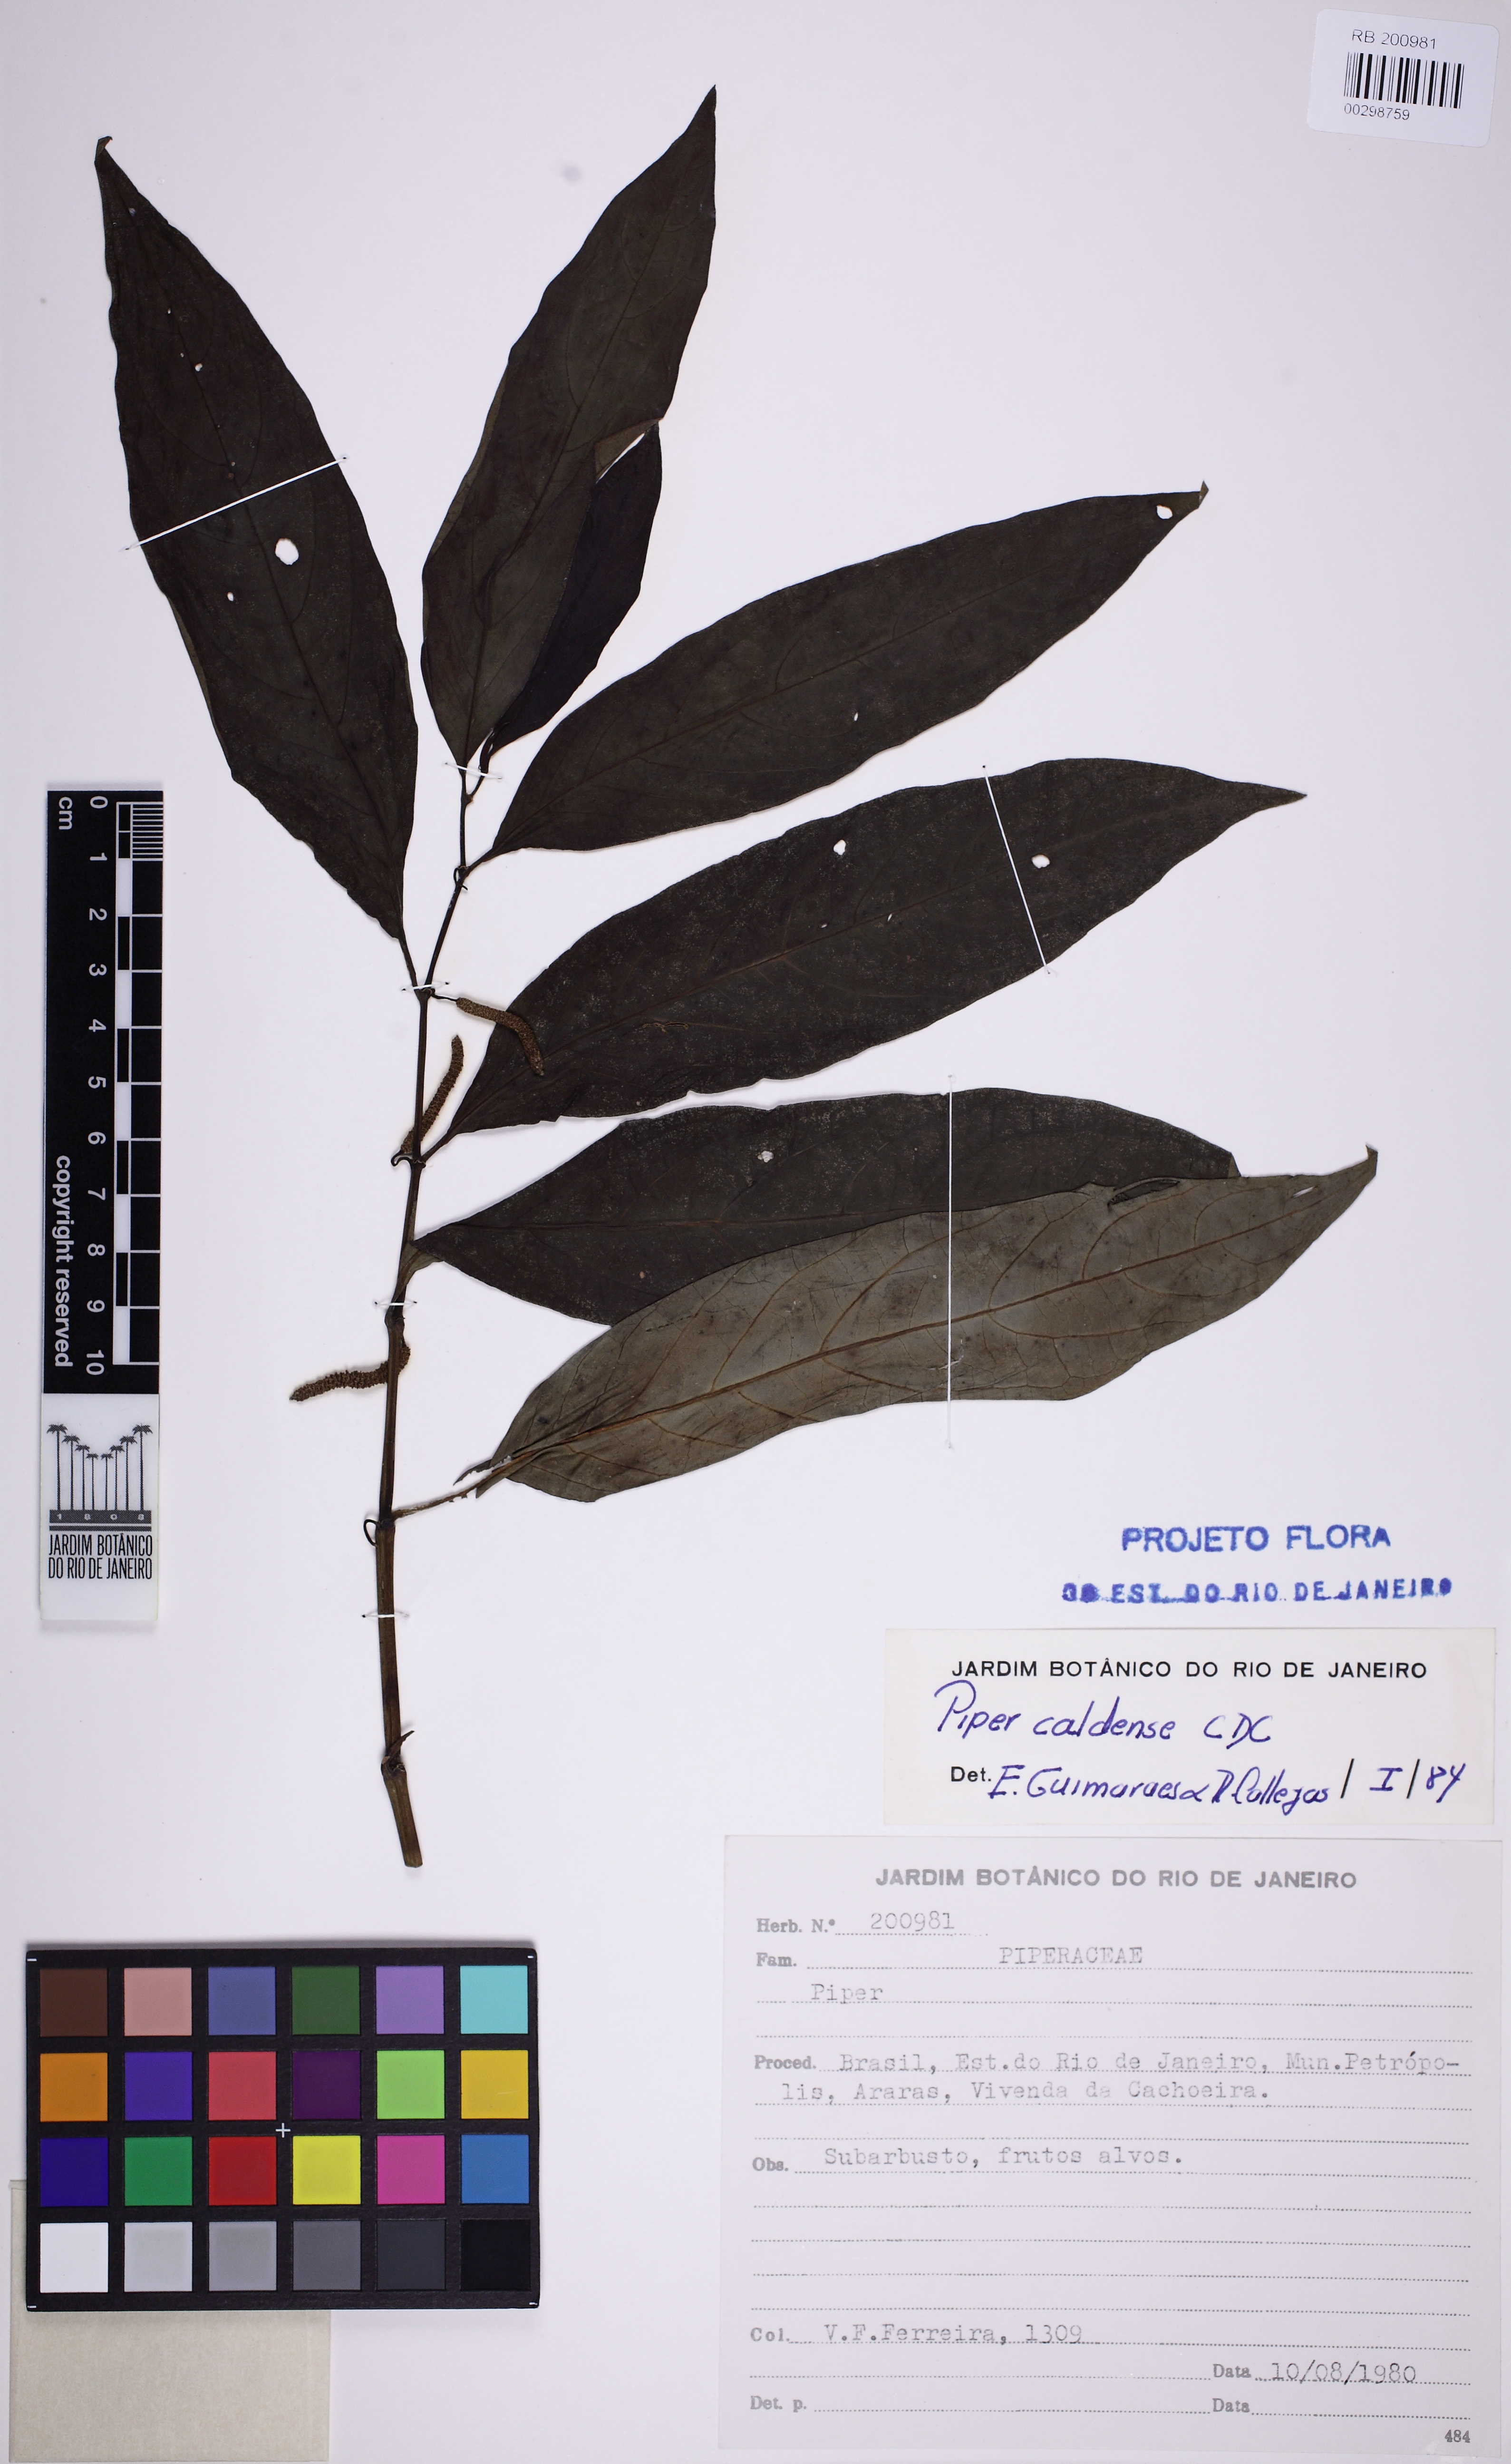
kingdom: Plantae
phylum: Tracheophyta
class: Magnoliopsida
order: Piperales
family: Piperaceae
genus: Piper
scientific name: Piper caldense
